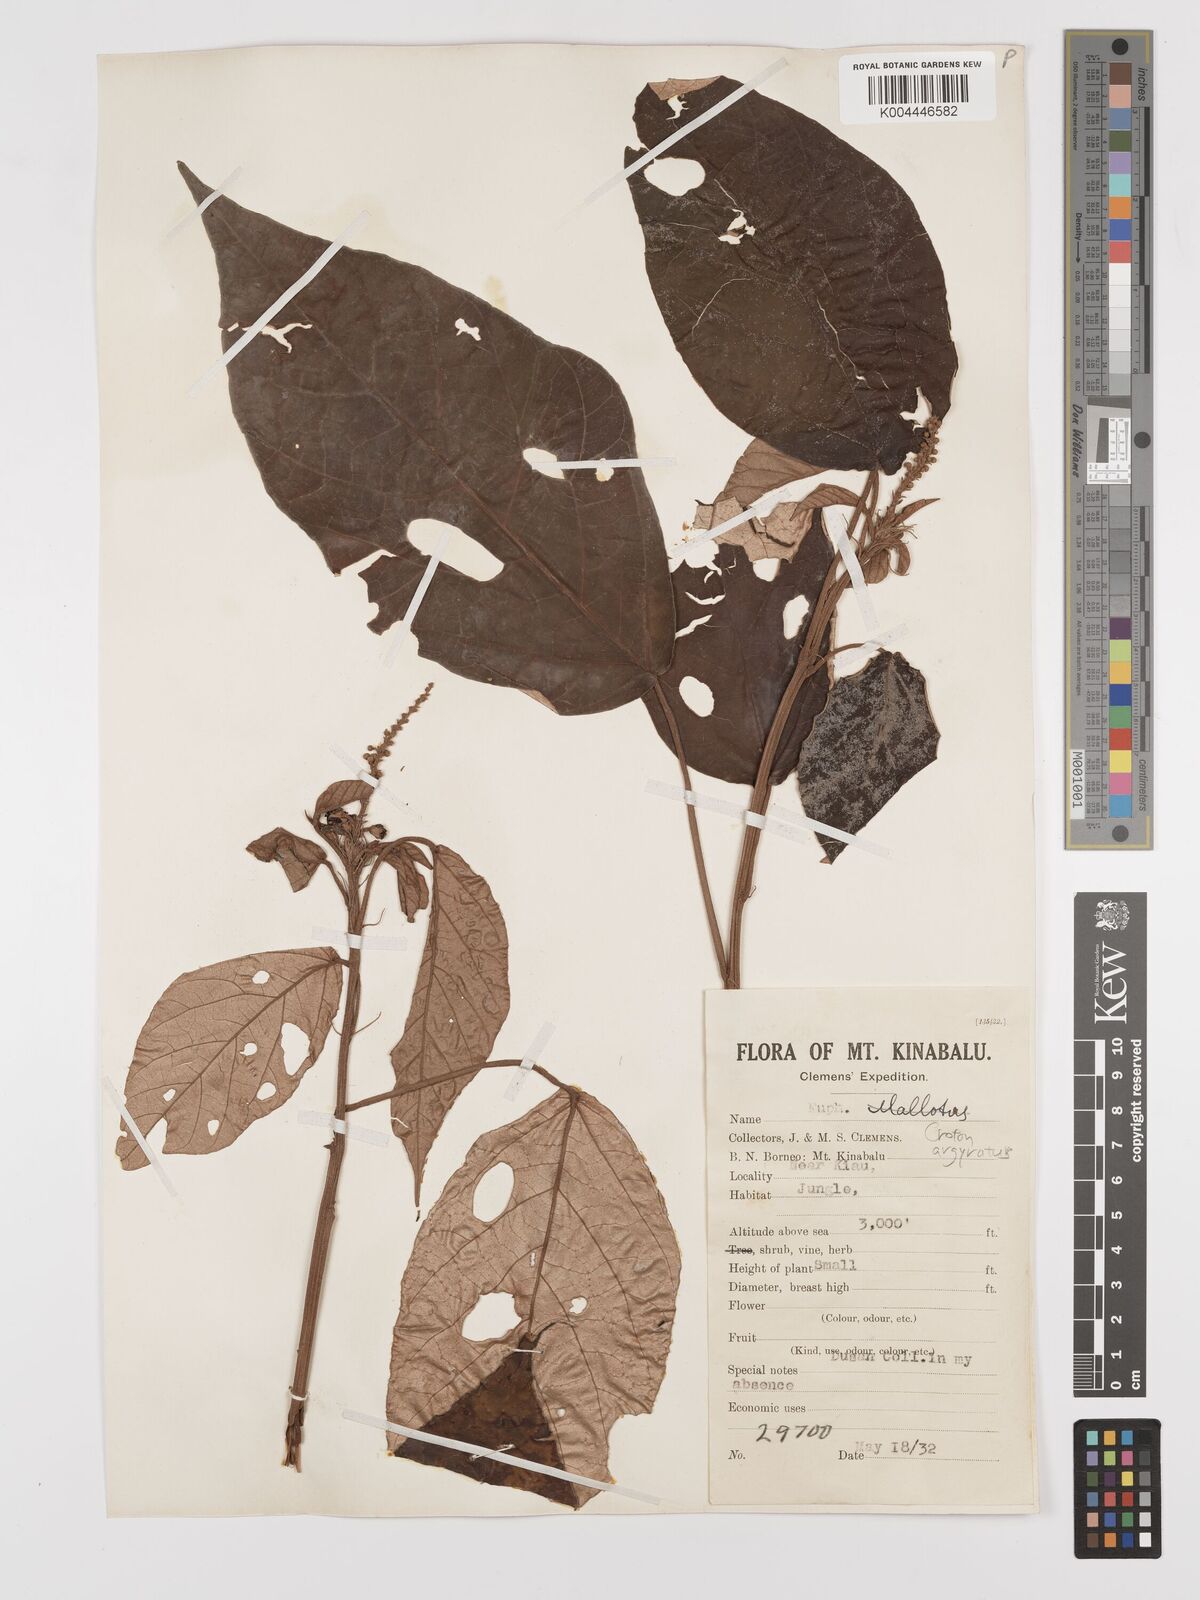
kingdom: Plantae
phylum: Tracheophyta
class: Magnoliopsida
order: Malpighiales
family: Euphorbiaceae
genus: Croton
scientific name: Croton argyratus
